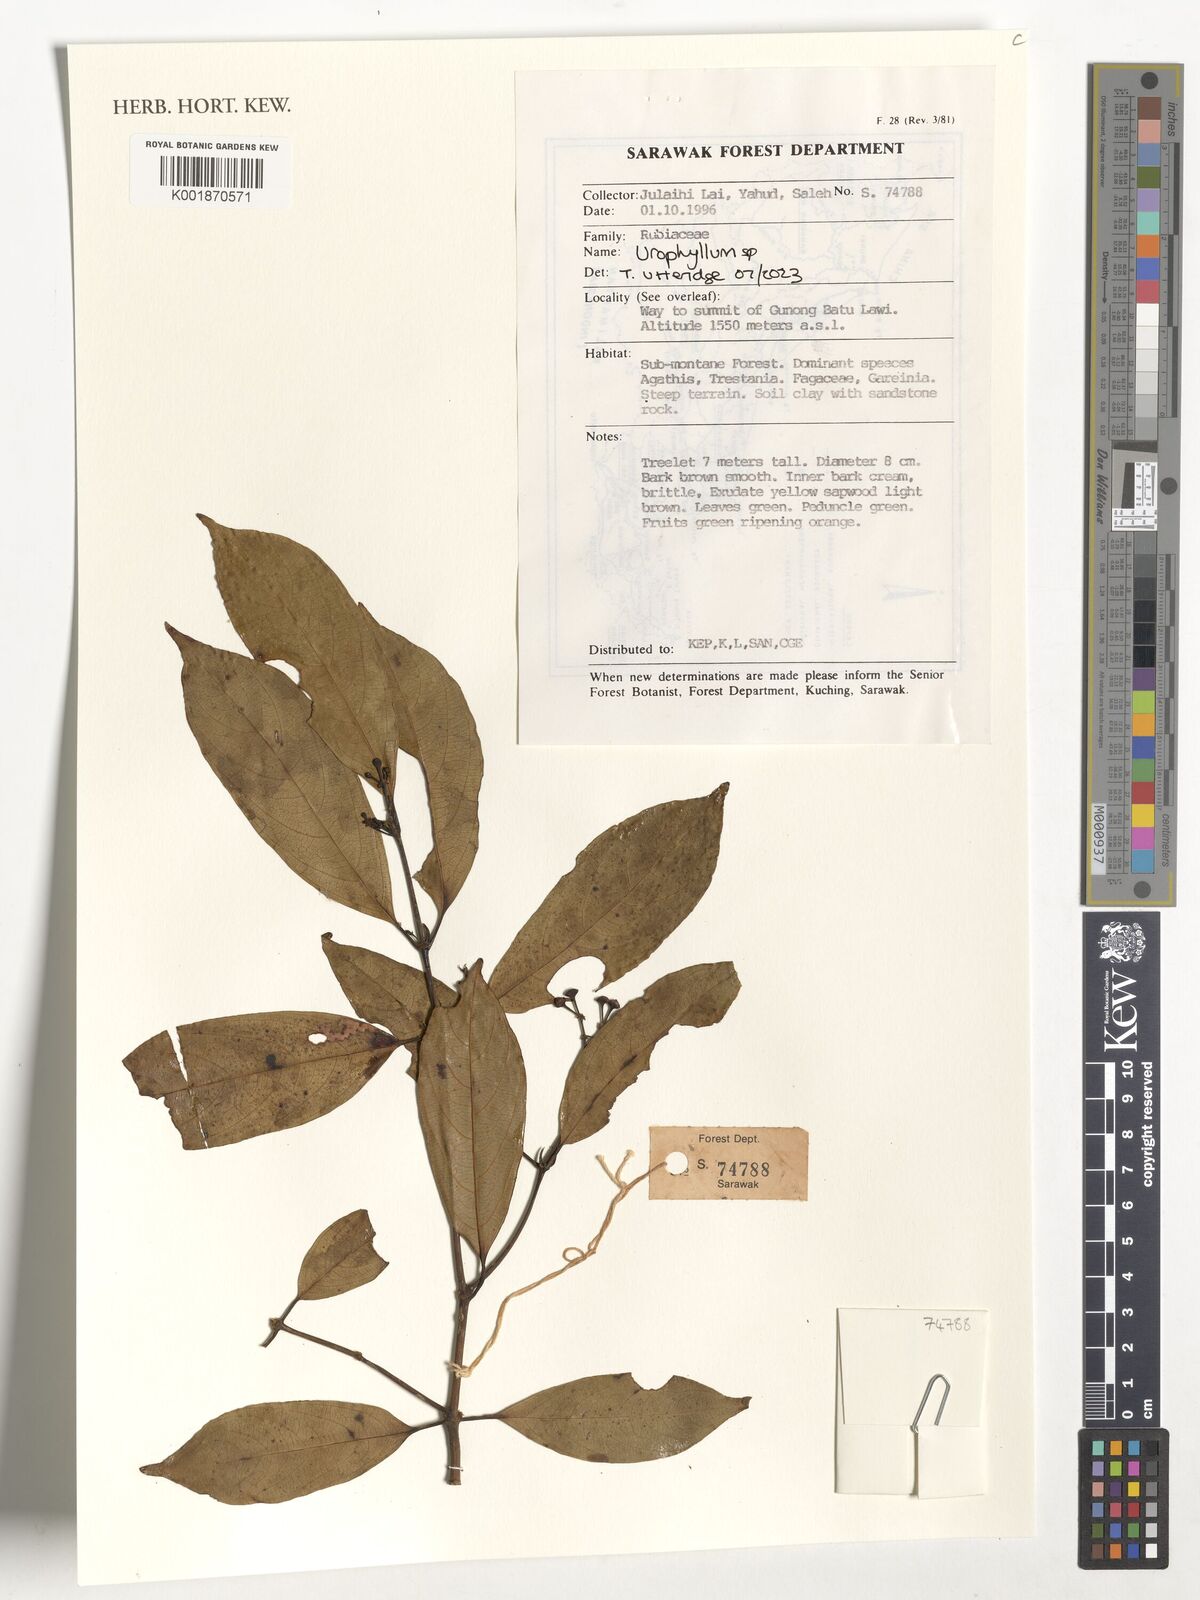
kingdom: Plantae
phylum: Tracheophyta
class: Magnoliopsida
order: Gentianales
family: Rubiaceae
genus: Urophyllum
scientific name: Urophyllum
